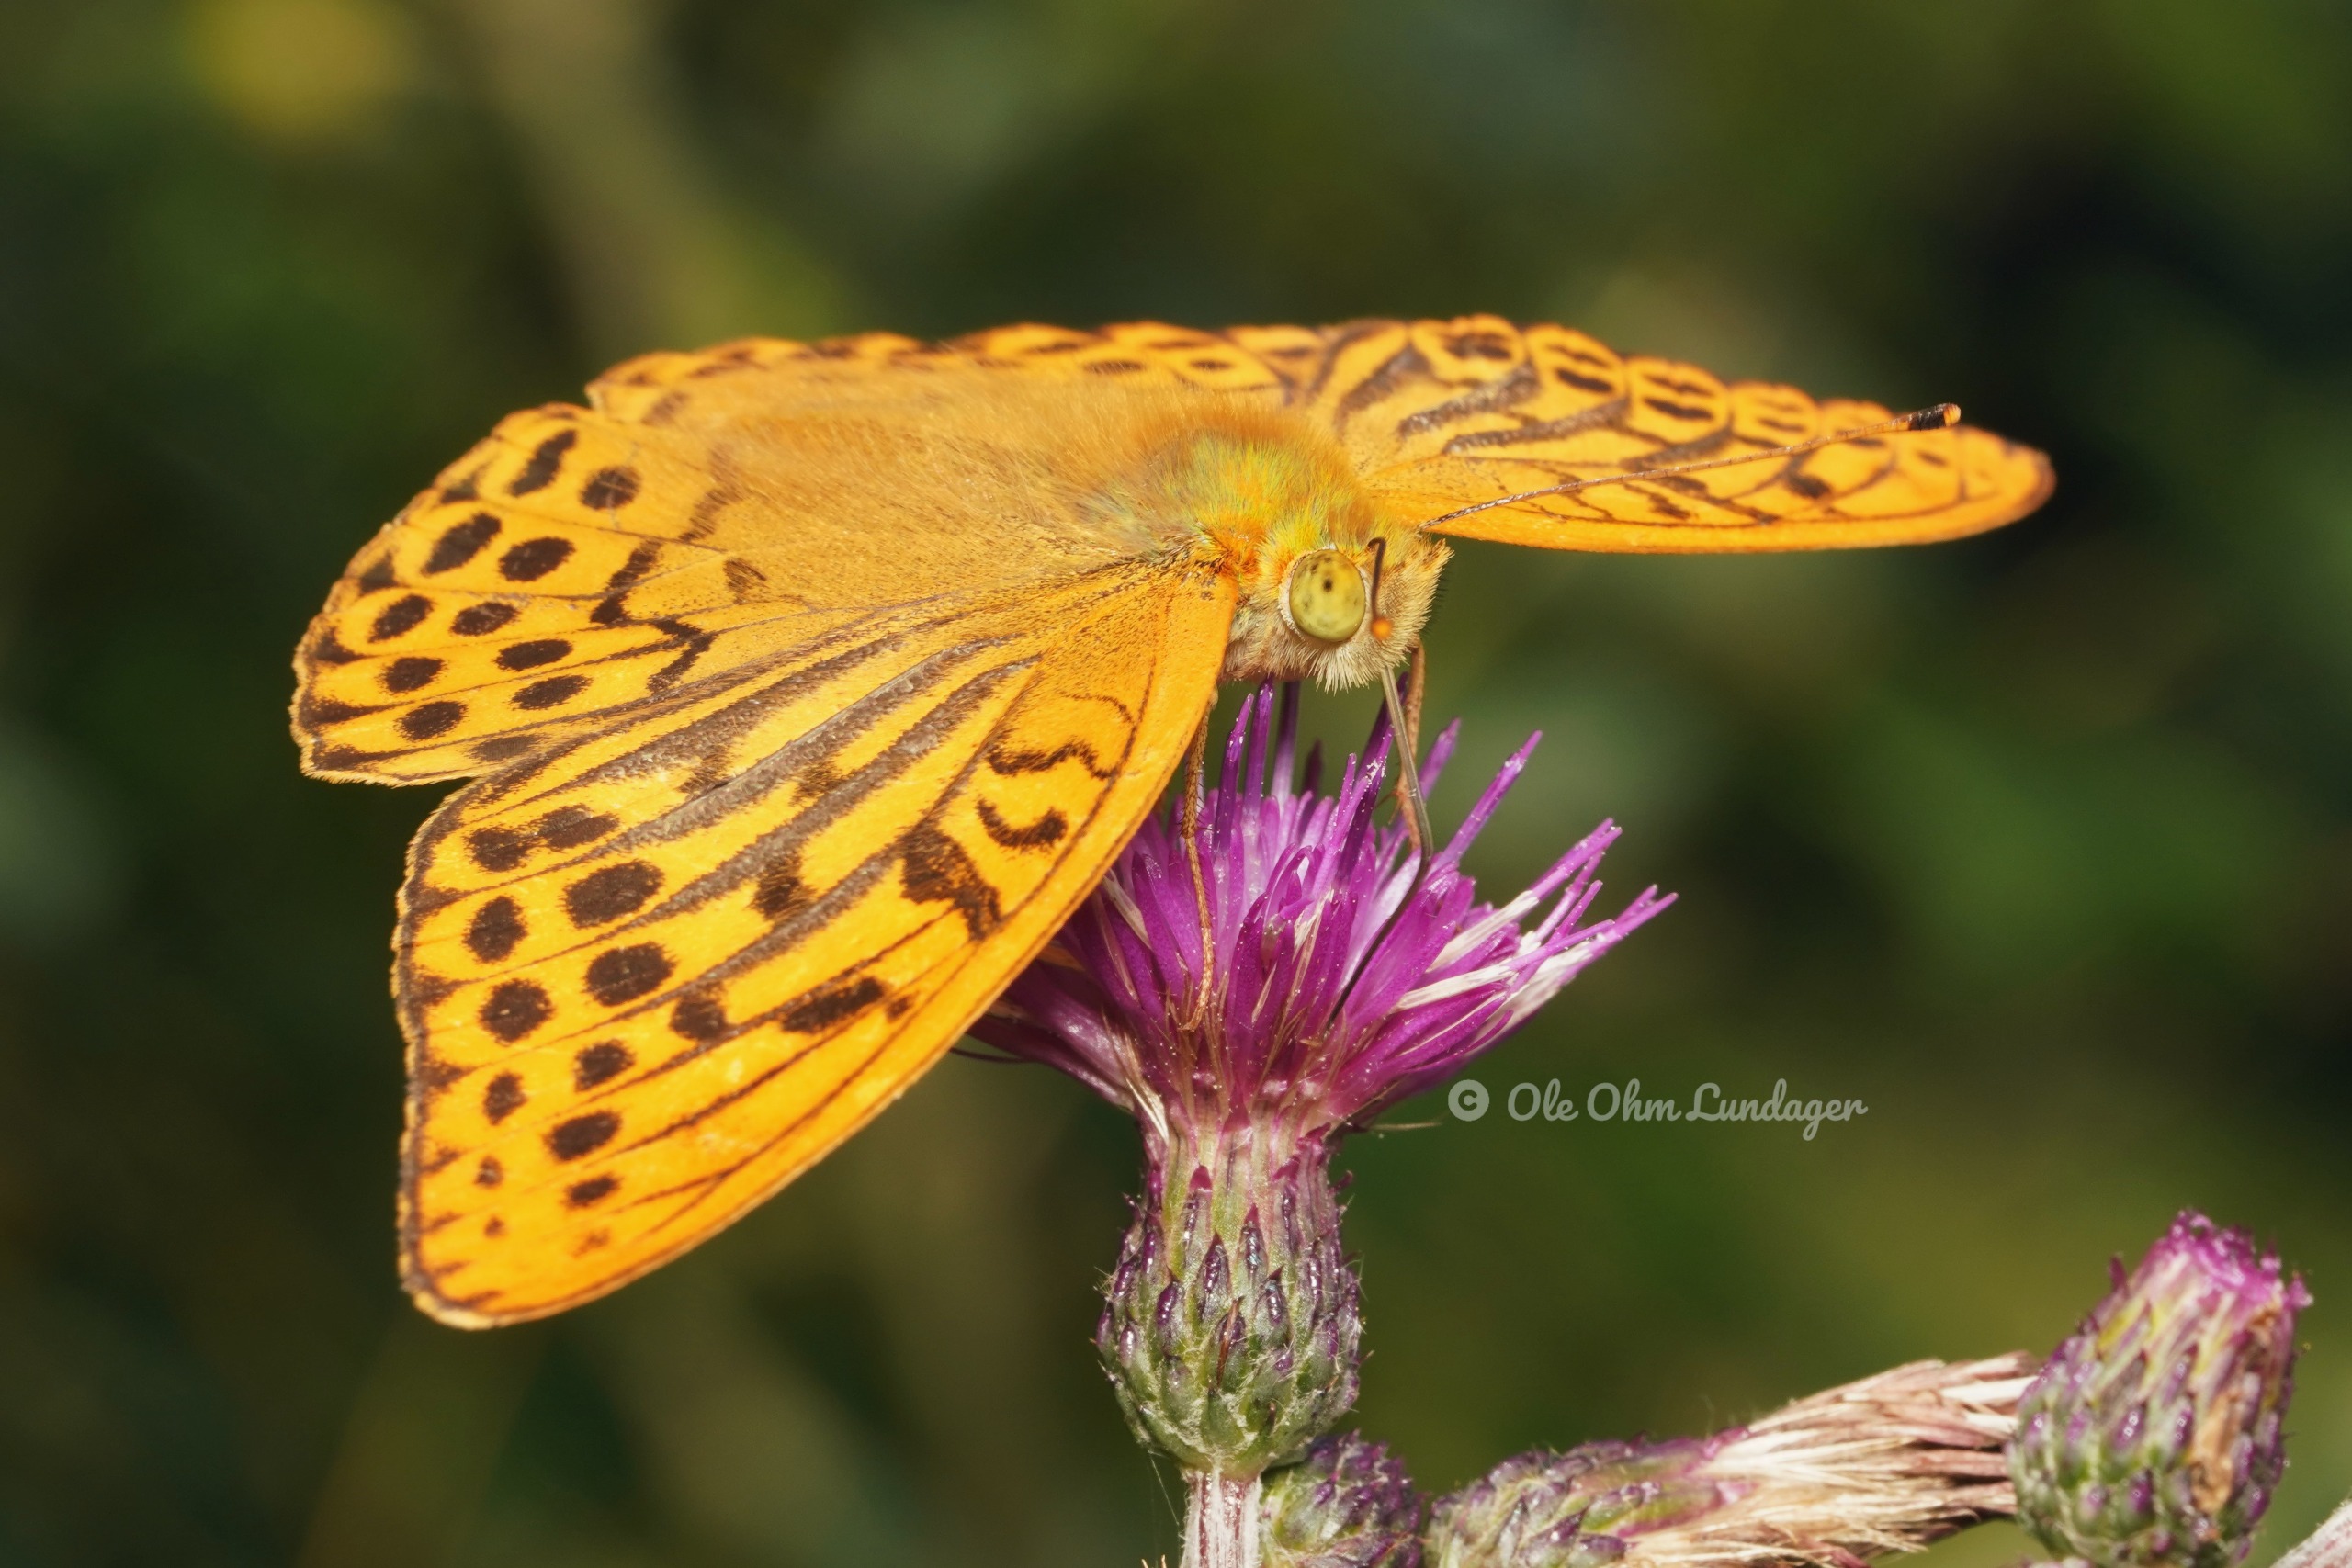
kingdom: Animalia
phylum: Arthropoda
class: Insecta
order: Lepidoptera
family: Nymphalidae
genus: Argynnis
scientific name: Argynnis paphia
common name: Kejserkåbe
